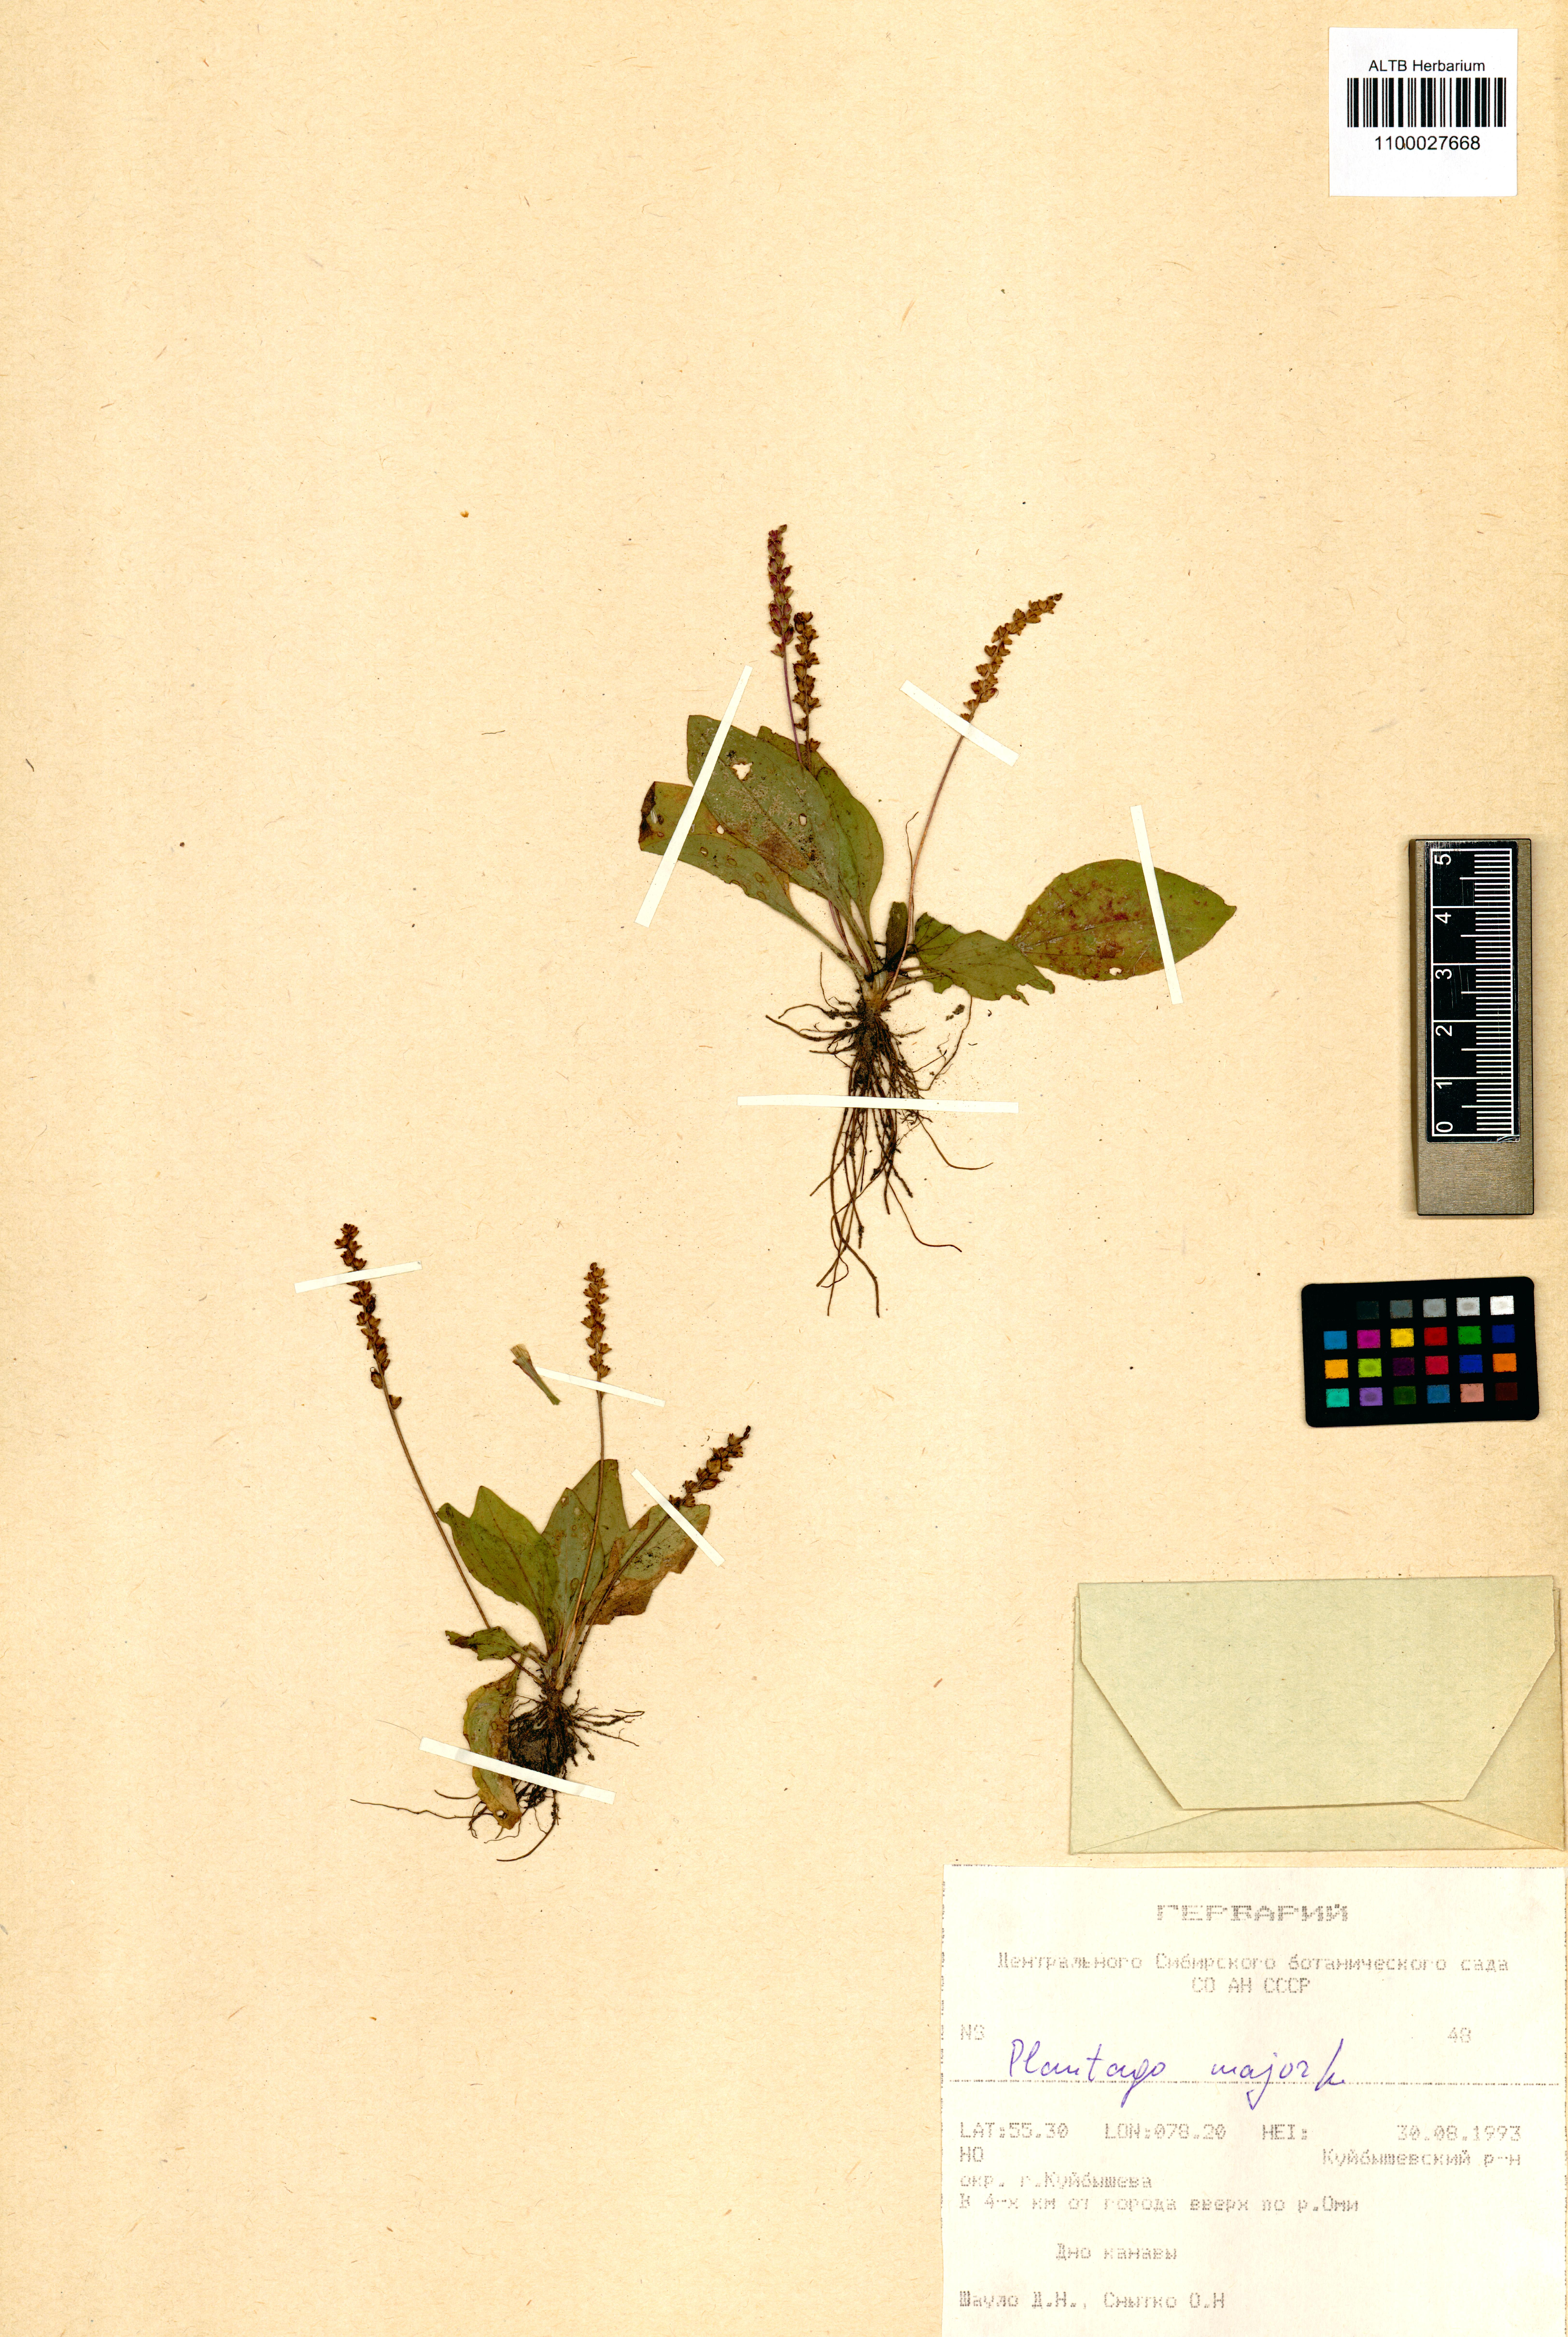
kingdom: Plantae
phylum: Tracheophyta
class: Magnoliopsida
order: Lamiales
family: Plantaginaceae
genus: Plantago
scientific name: Plantago major
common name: Common plantain
